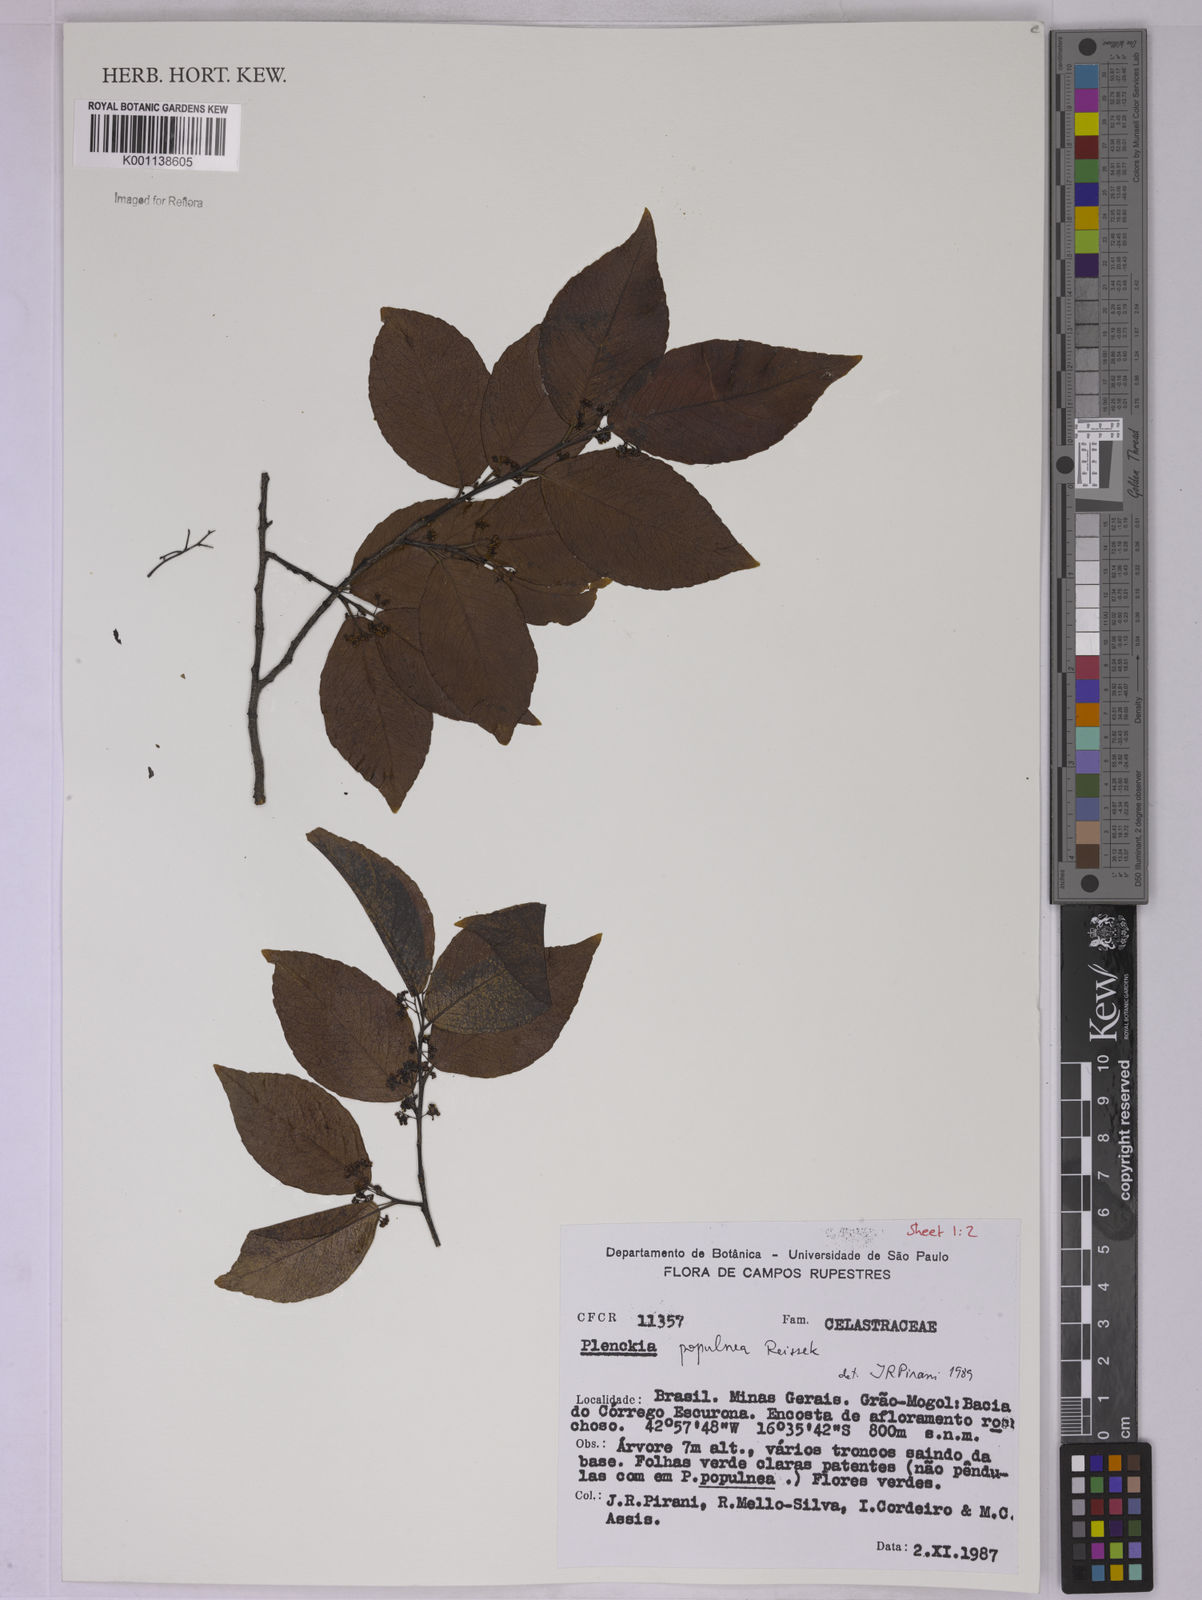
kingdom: Plantae
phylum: Tracheophyta
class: Magnoliopsida
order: Celastrales
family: Celastraceae
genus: Plenckia
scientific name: Plenckia populnea
